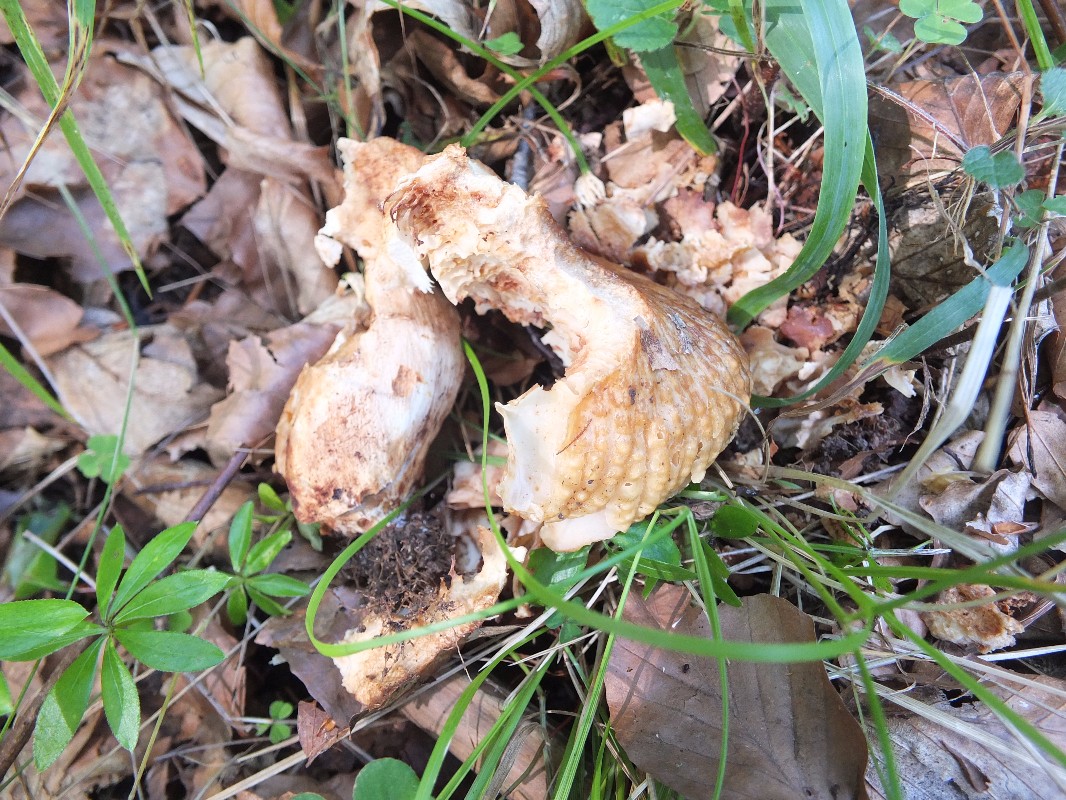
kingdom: Fungi
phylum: Basidiomycota
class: Agaricomycetes
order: Russulales
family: Russulaceae
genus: Russula
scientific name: Russula foetens
